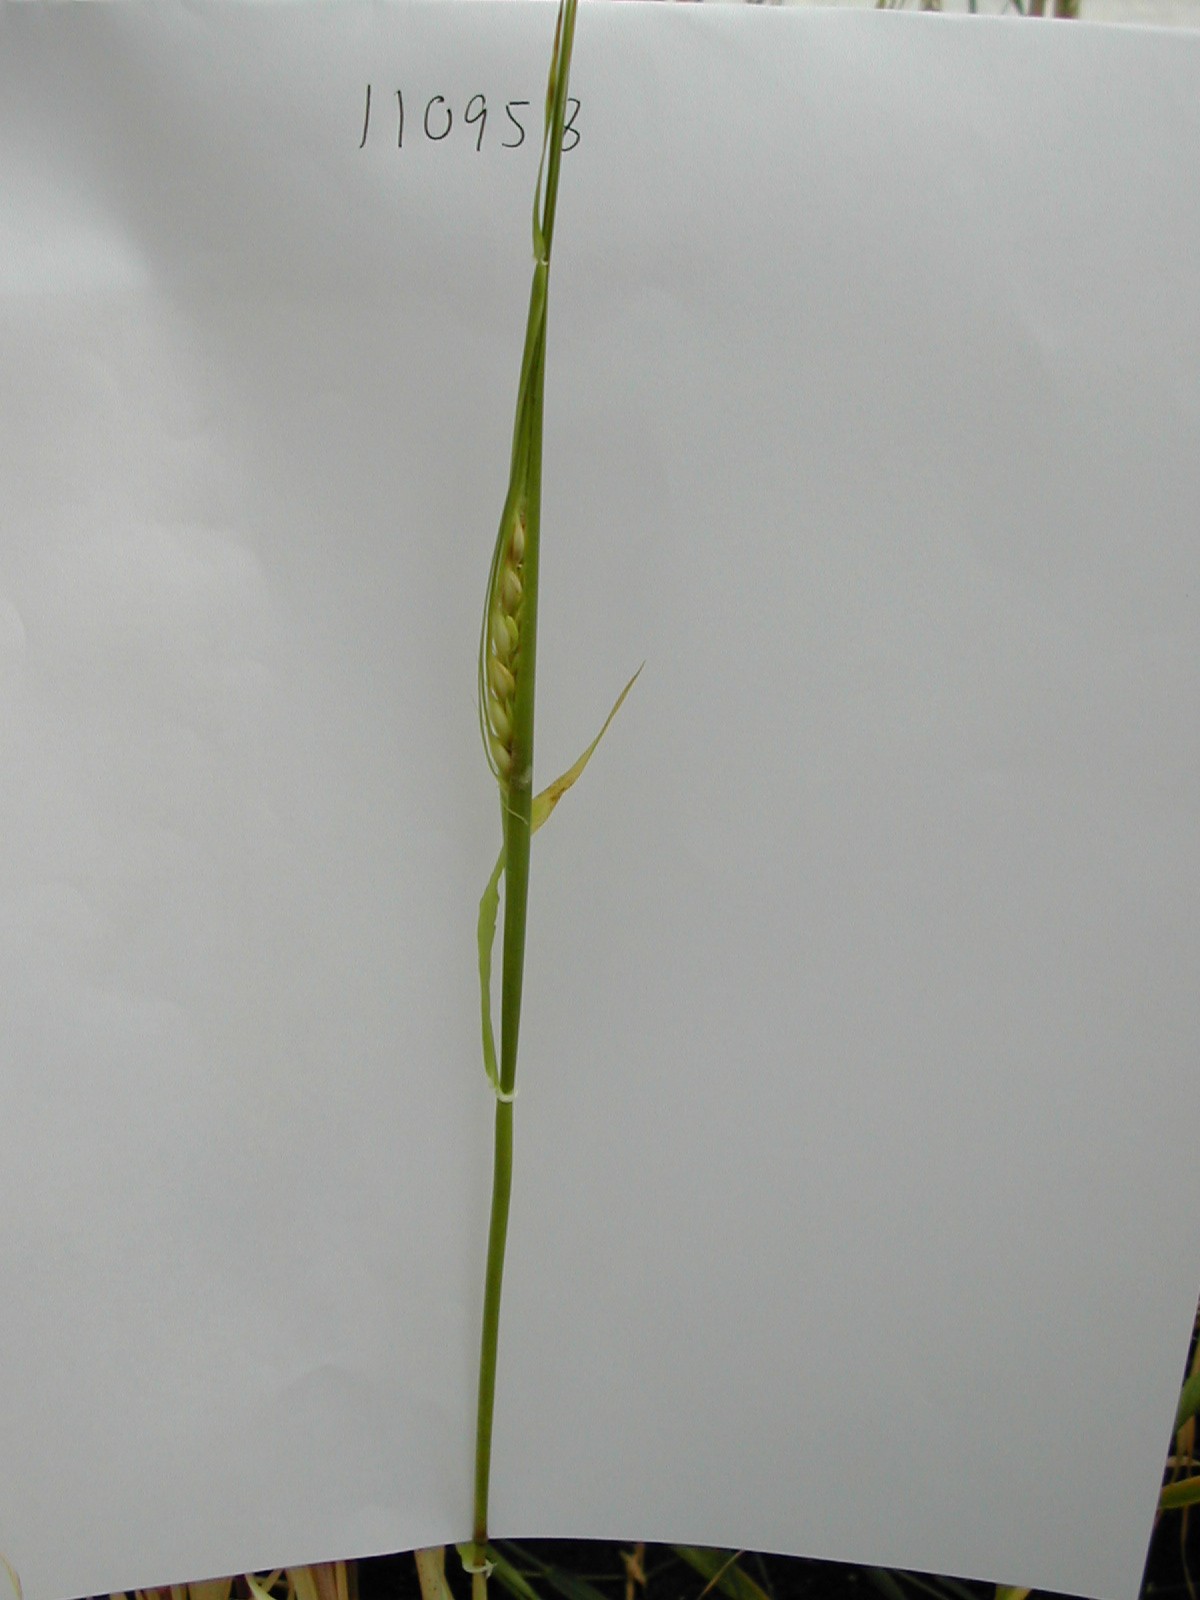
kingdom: Plantae
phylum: Tracheophyta
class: Liliopsida
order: Poales
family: Poaceae
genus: Hordeum
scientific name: Hordeum vulgare
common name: Common barley
